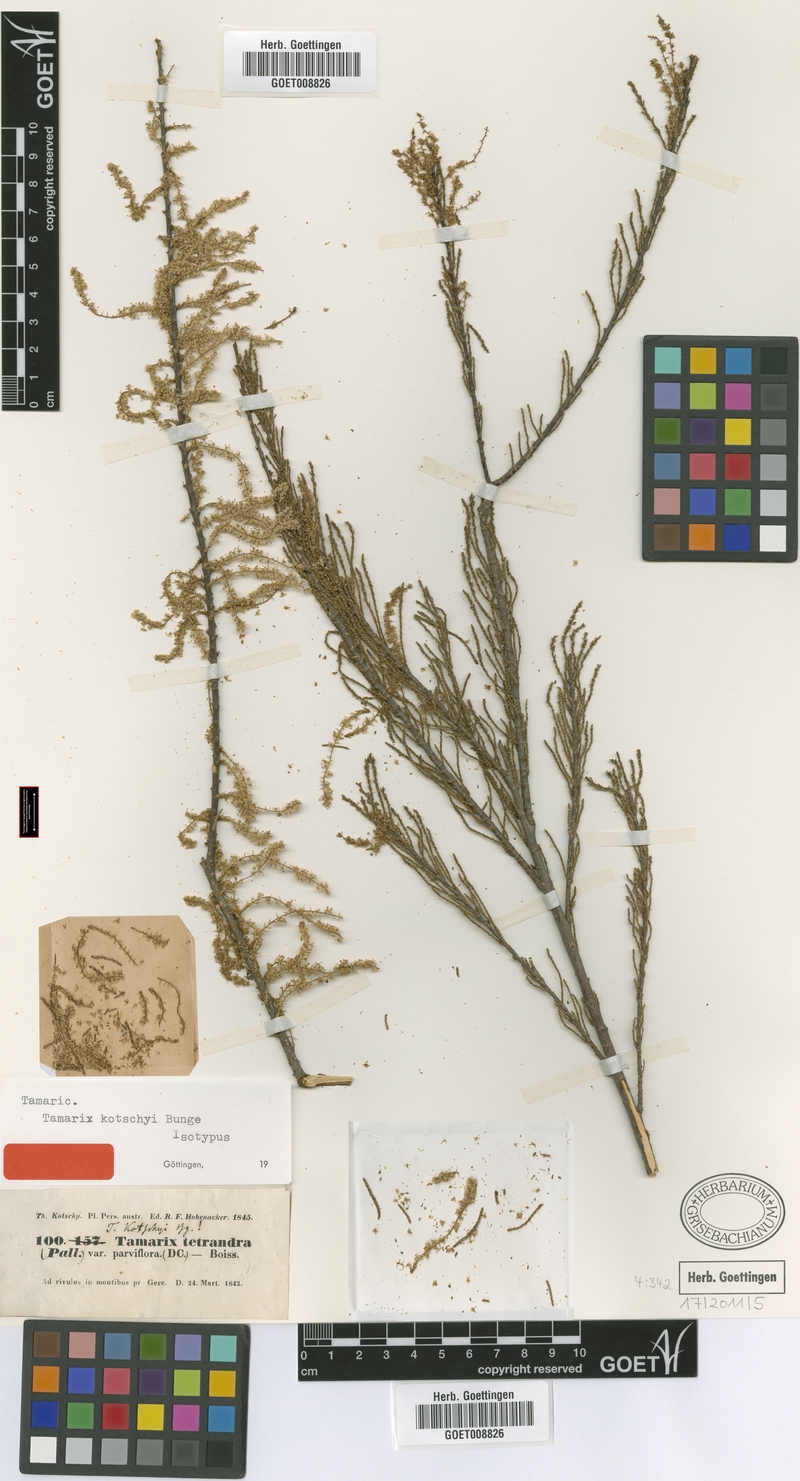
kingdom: Plantae
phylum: Tracheophyta
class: Magnoliopsida
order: Caryophyllales
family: Tamaricaceae
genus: Tamarix
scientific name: Tamarix kotschyi
